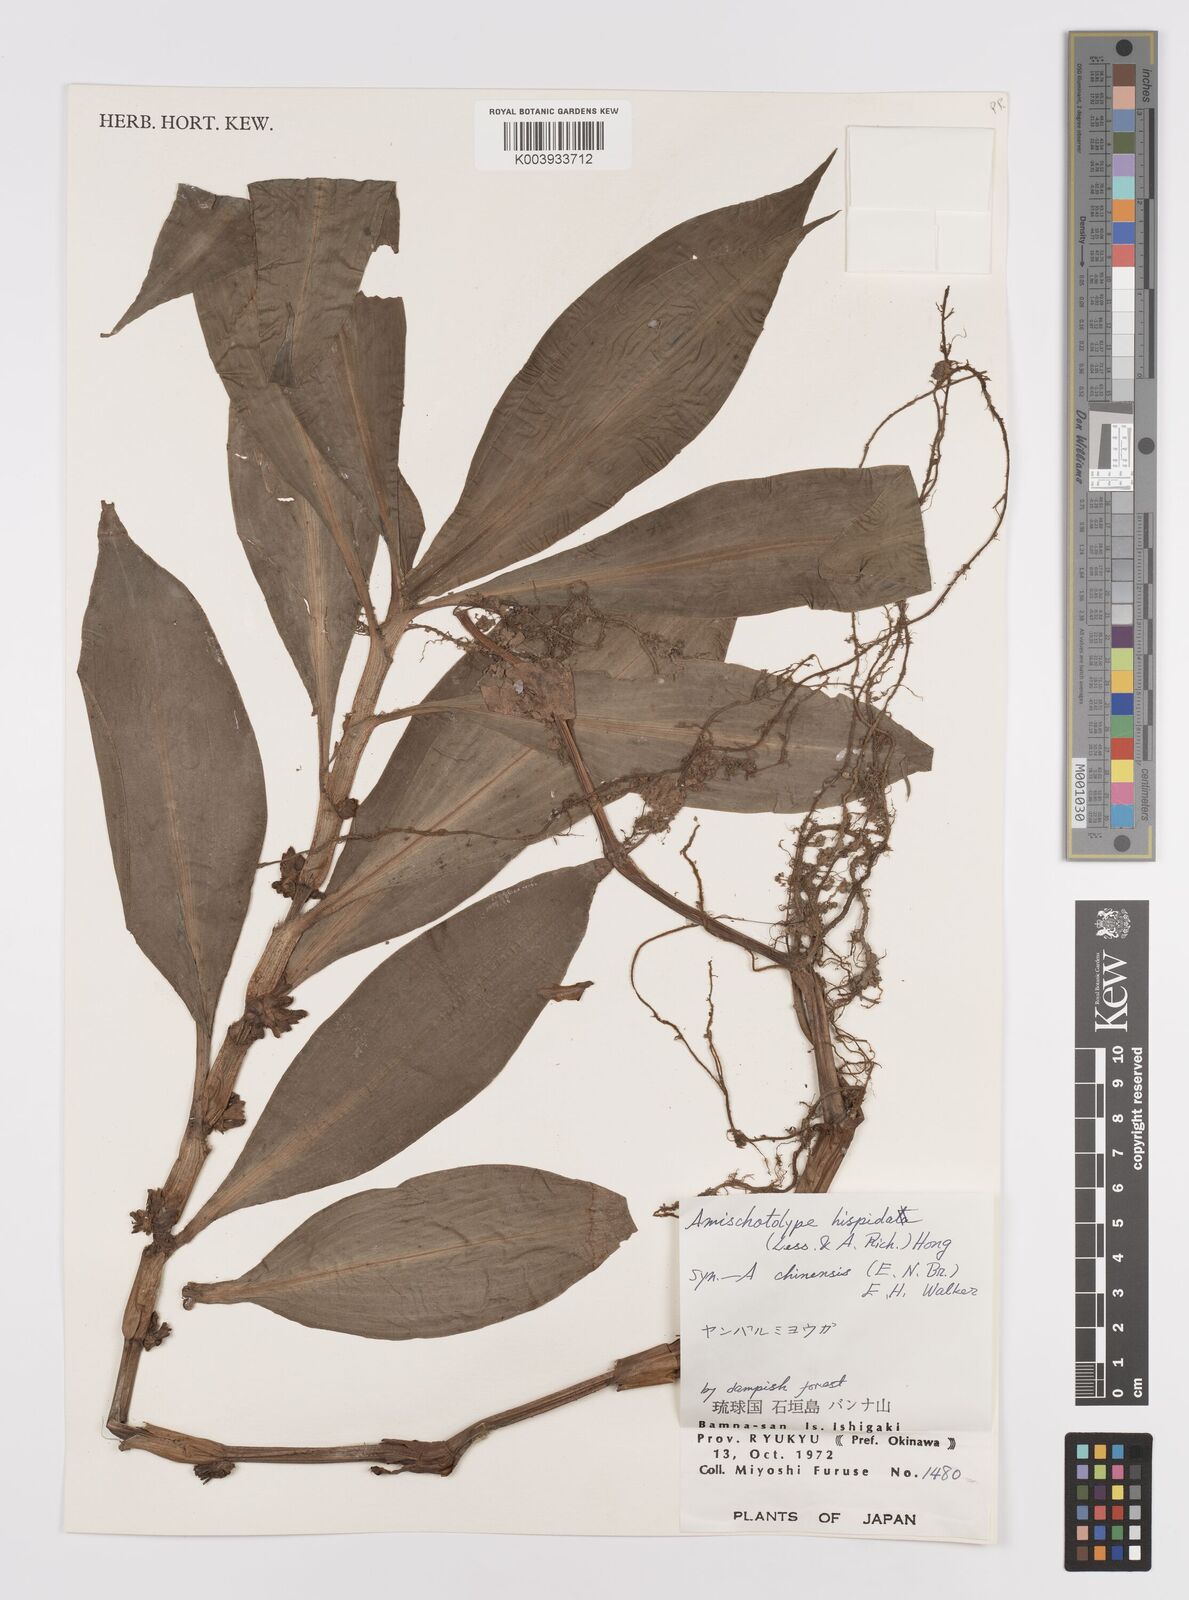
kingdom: Plantae
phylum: Tracheophyta
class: Liliopsida
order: Commelinales
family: Commelinaceae
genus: Amischotolype
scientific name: Amischotolype hispida
